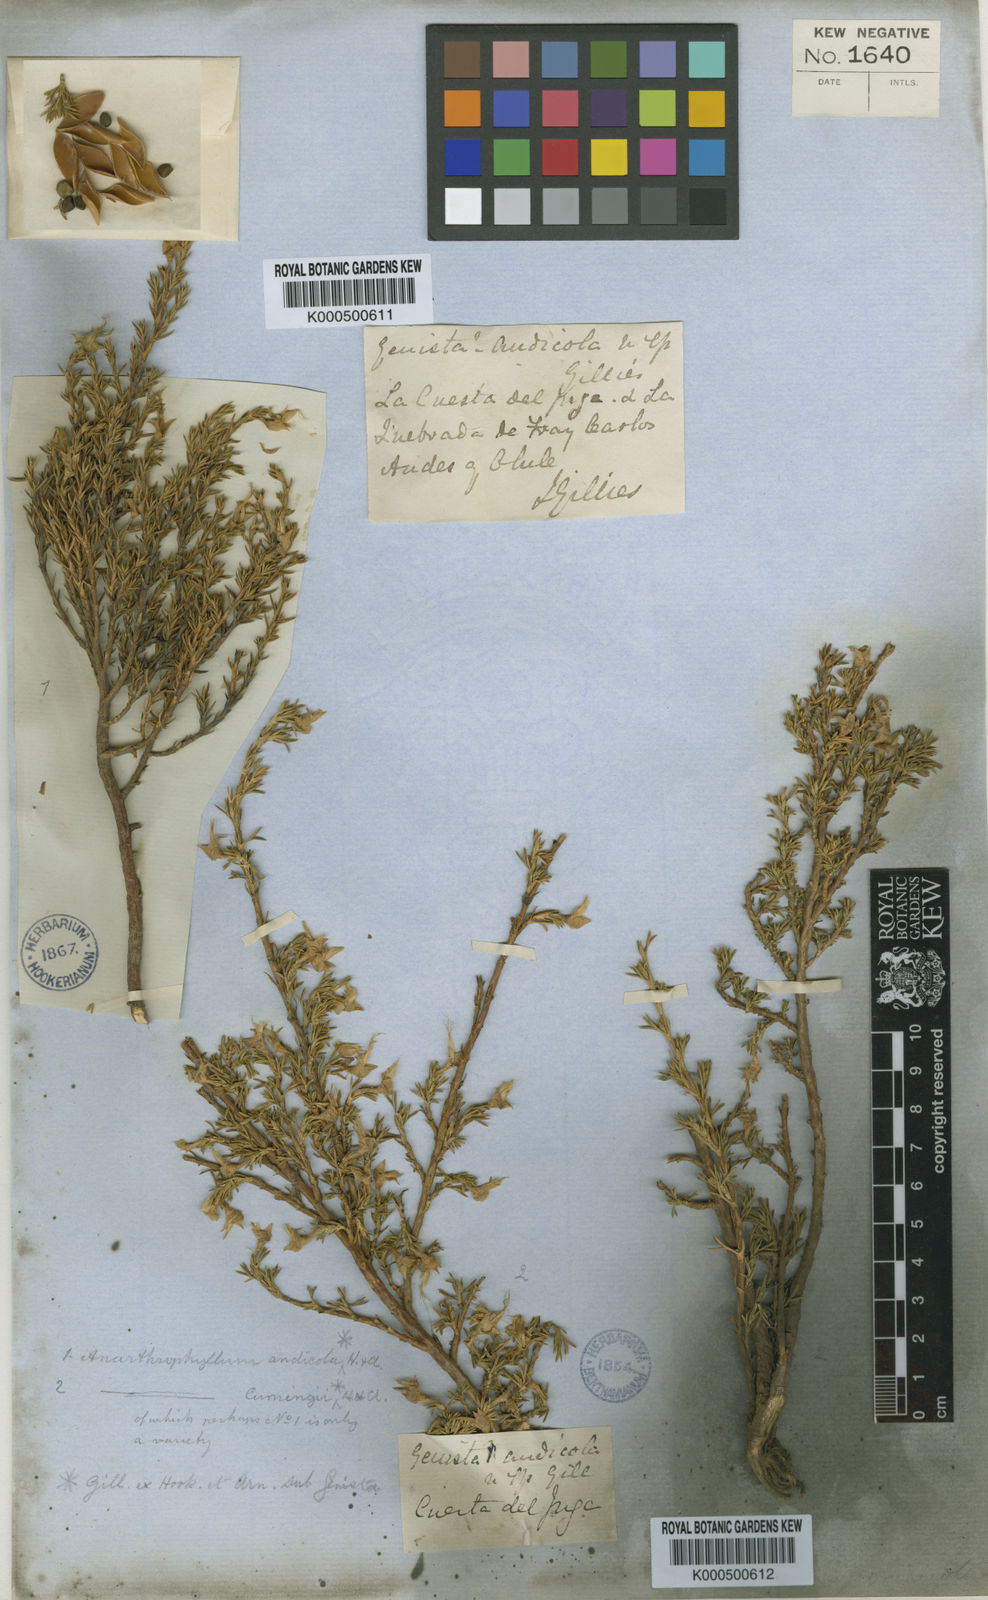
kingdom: Plantae
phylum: Tracheophyta
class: Magnoliopsida
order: Fabales
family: Fabaceae
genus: Anarthrophyllum
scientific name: Anarthrophyllum andicola
